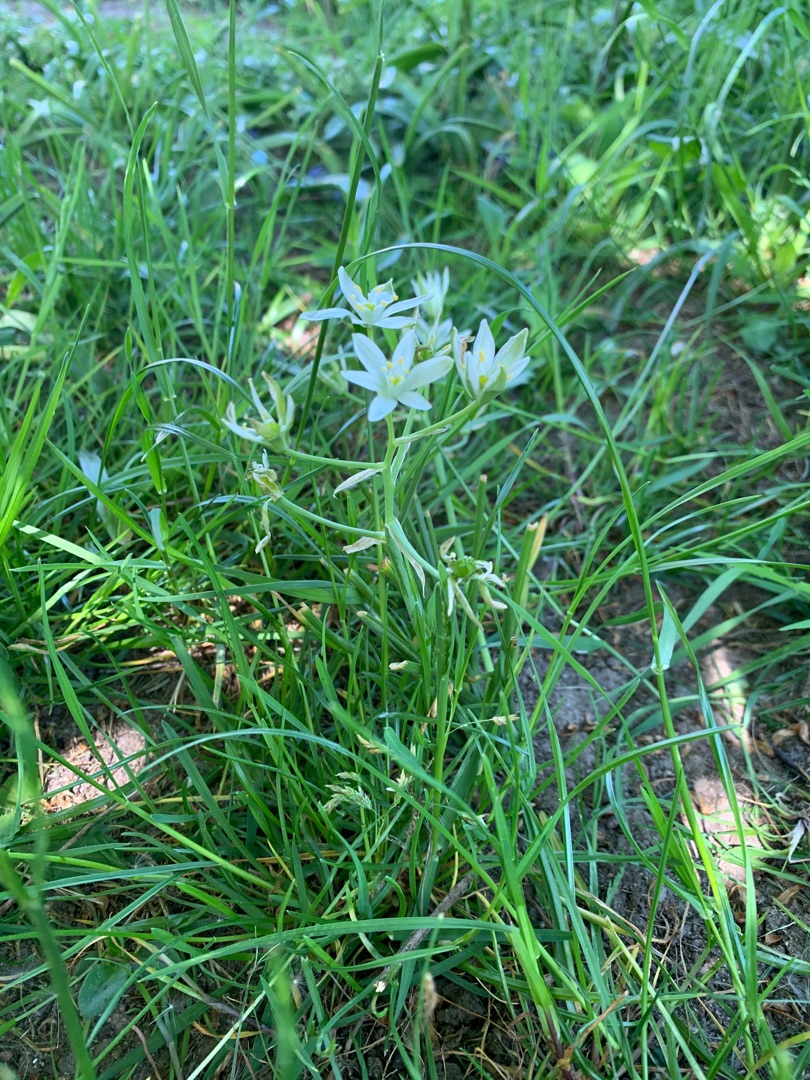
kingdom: Plantae
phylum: Tracheophyta
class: Liliopsida
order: Asparagales
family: Asparagaceae
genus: Ornithogalum
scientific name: Ornithogalum umbellatum
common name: Kost-fuglemælk
